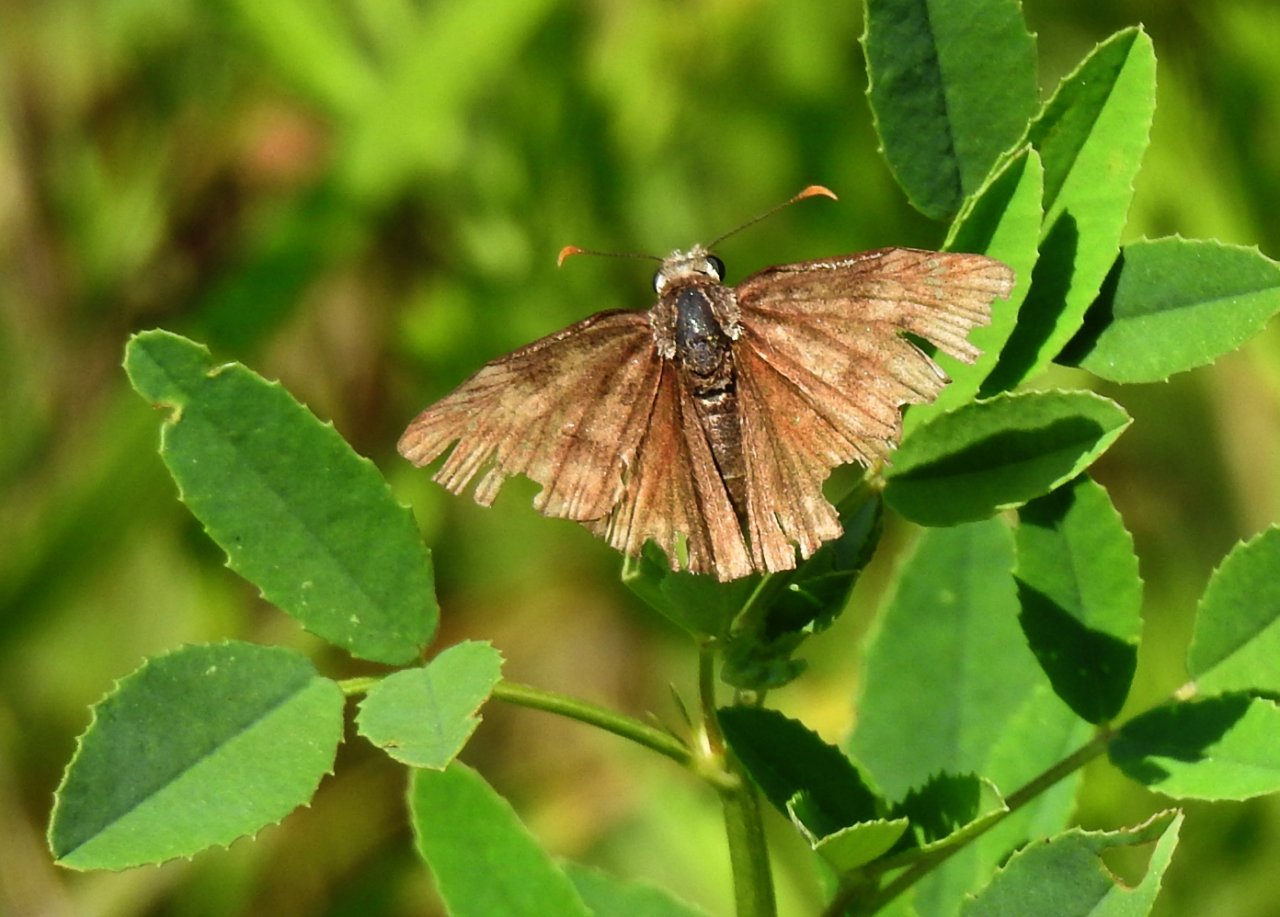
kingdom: Animalia
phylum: Arthropoda
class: Insecta
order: Lepidoptera
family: Hesperiidae
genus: Gesta
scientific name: Gesta
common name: Wild Indigo Duskywing
